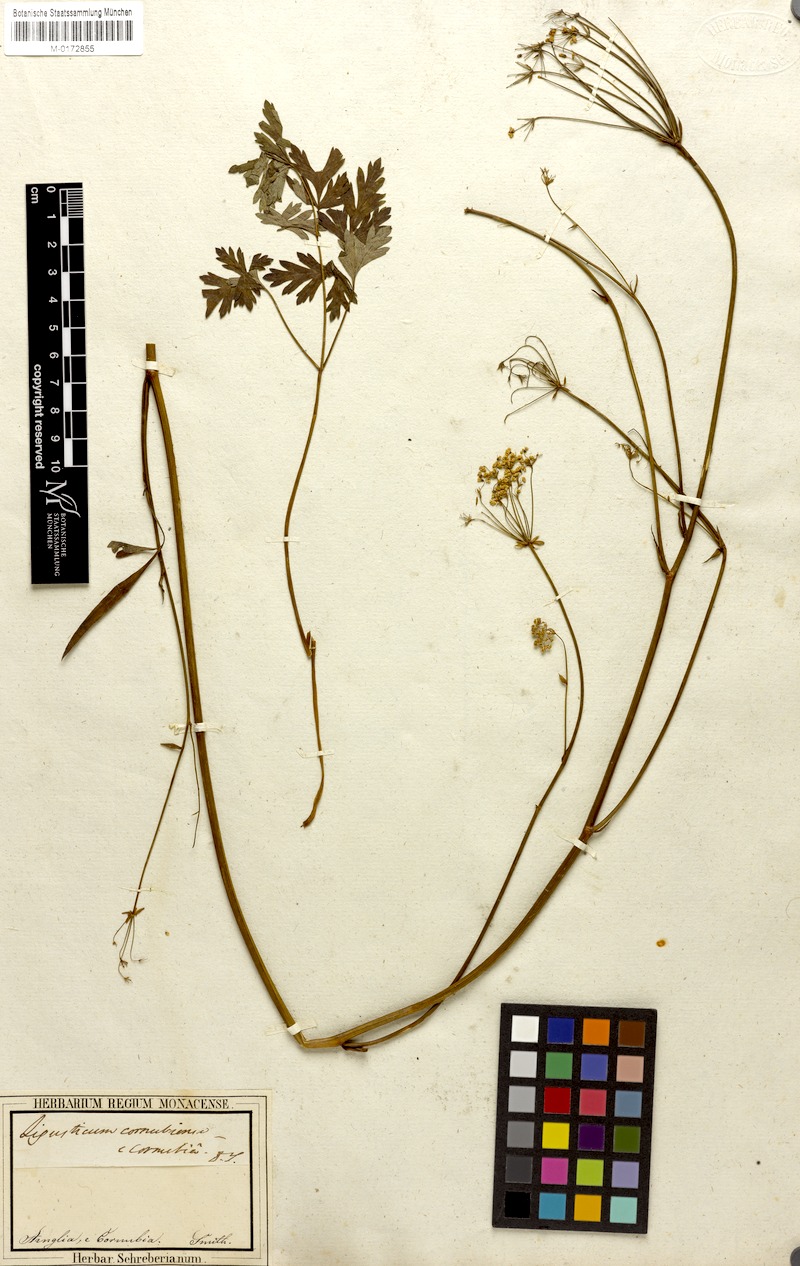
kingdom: Plantae
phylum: Tracheophyta
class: Magnoliopsida
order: Apiales
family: Apiaceae
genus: Physospermum
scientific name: Physospermum cornubiense
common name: Bladderseed
